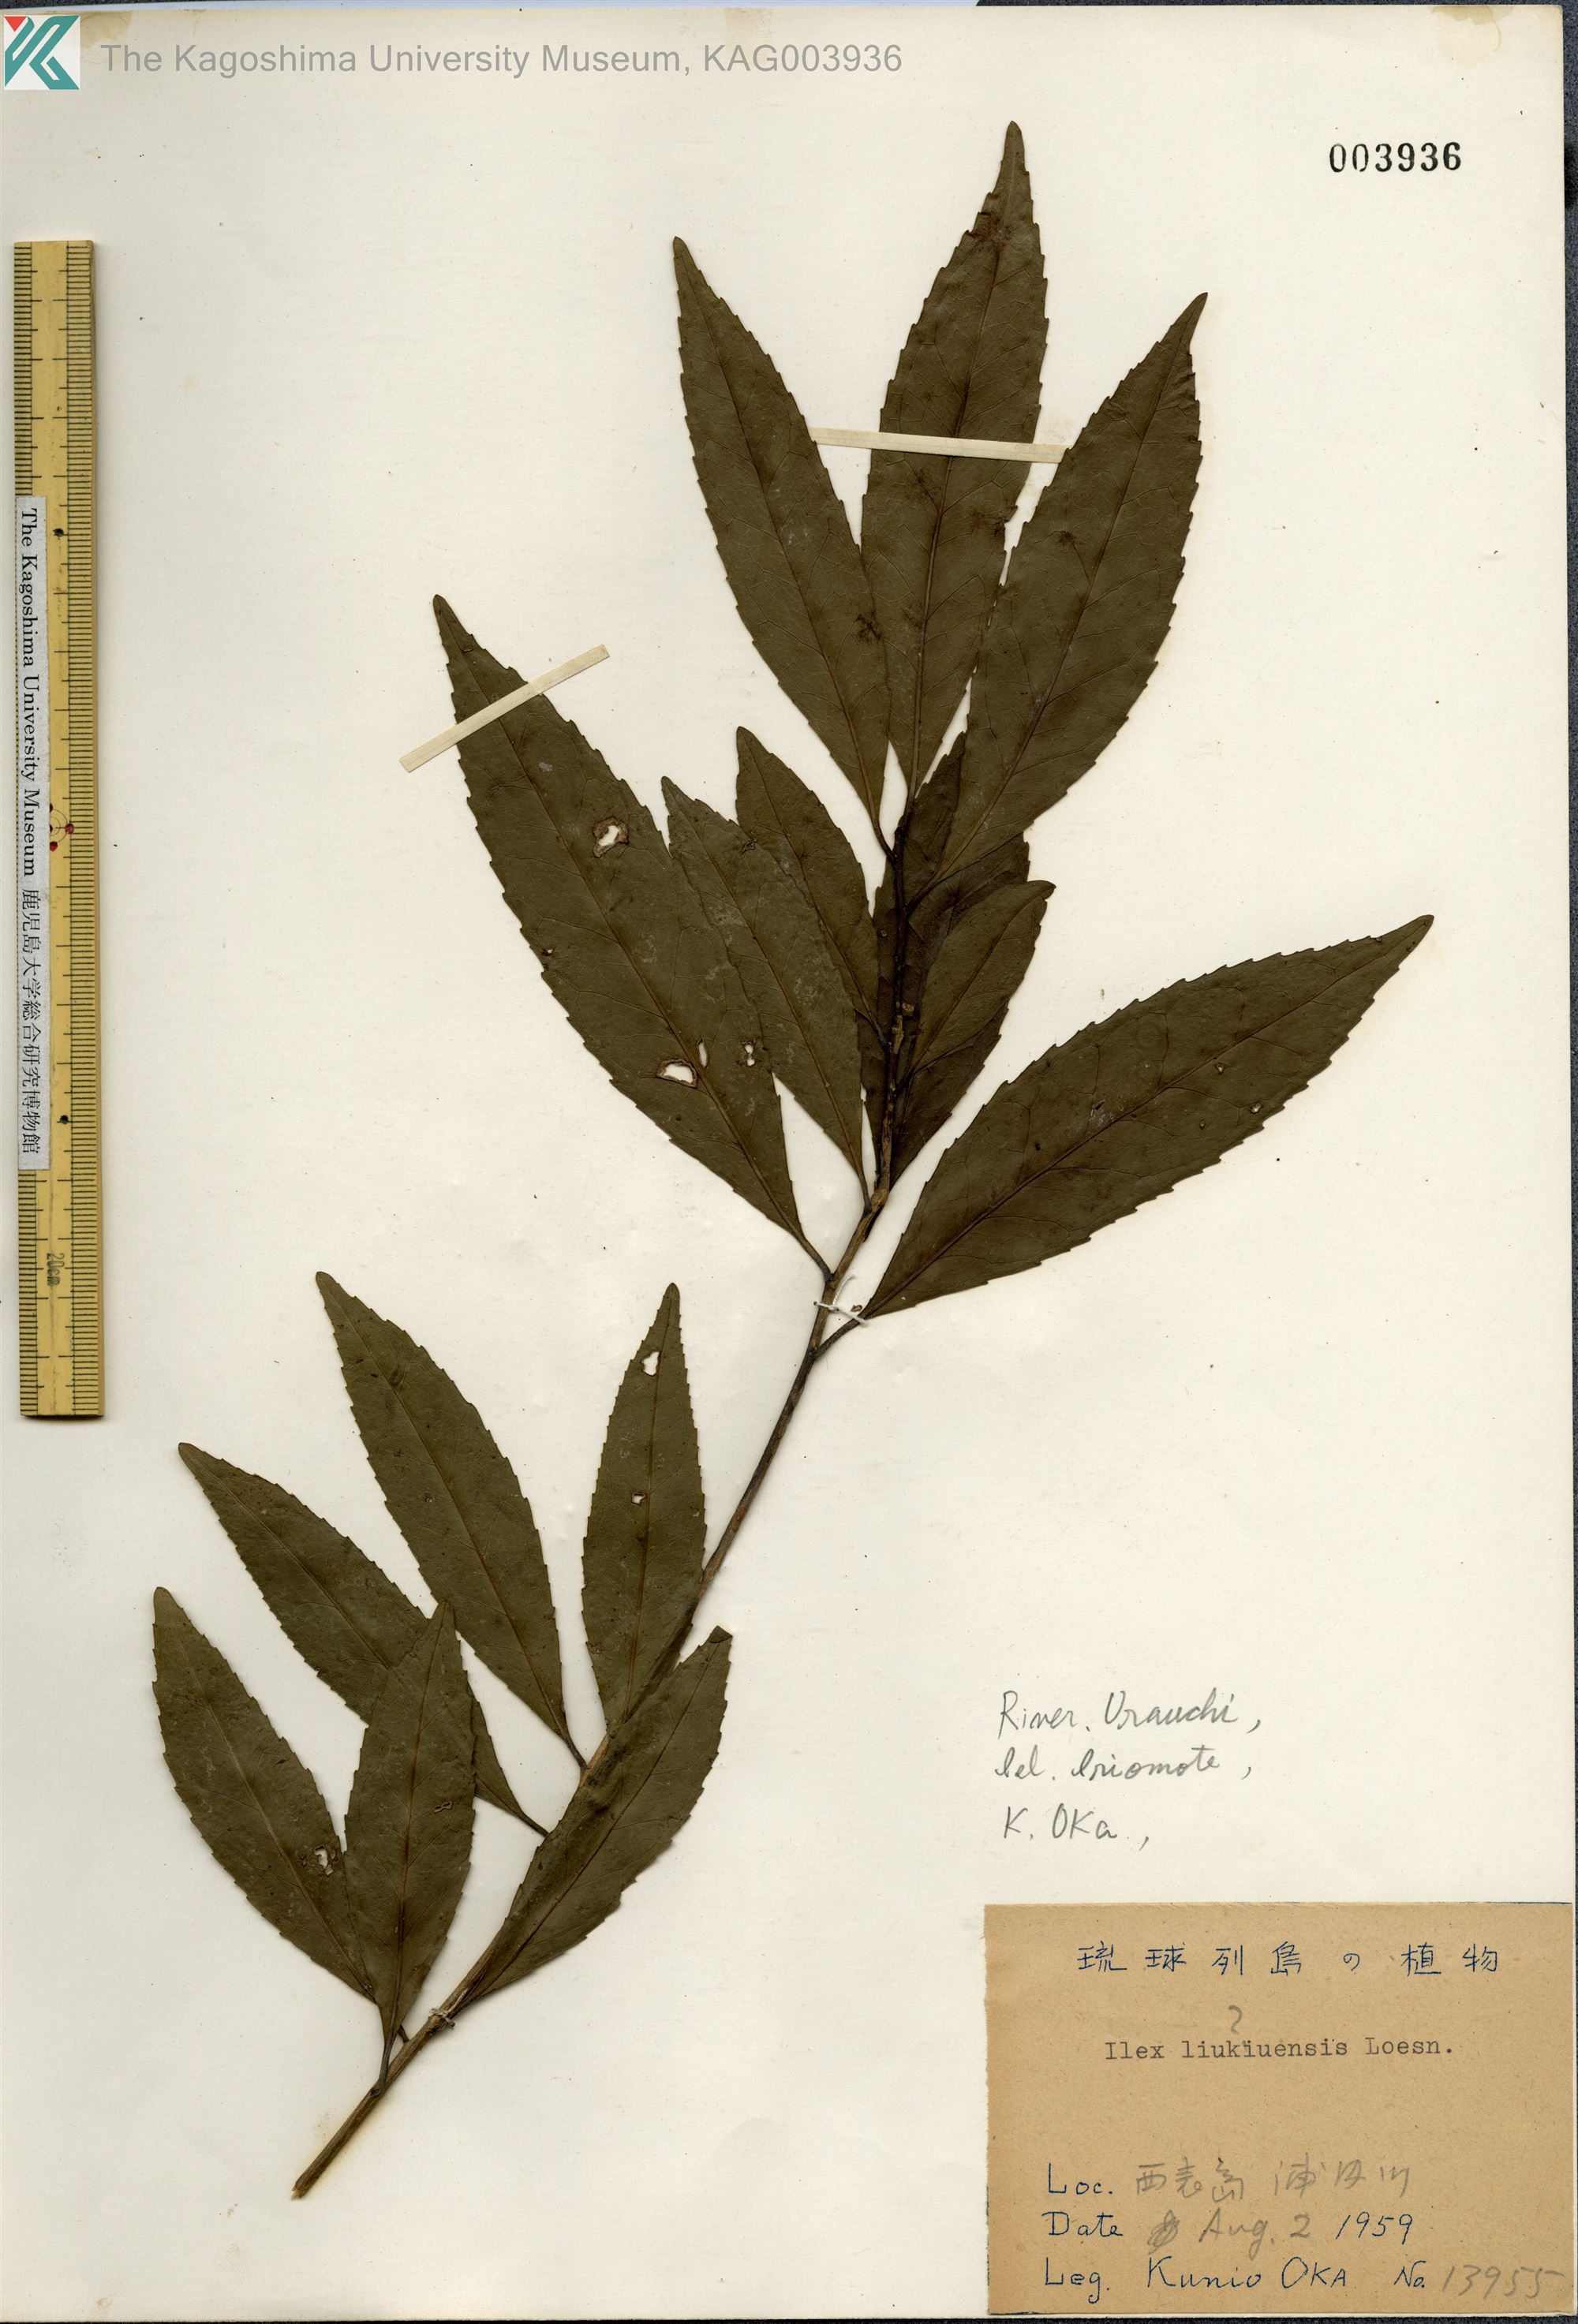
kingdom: Plantae
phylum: Tracheophyta
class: Magnoliopsida
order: Aquifoliales
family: Aquifoliaceae
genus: Ilex
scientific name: Ilex liukiuensis
